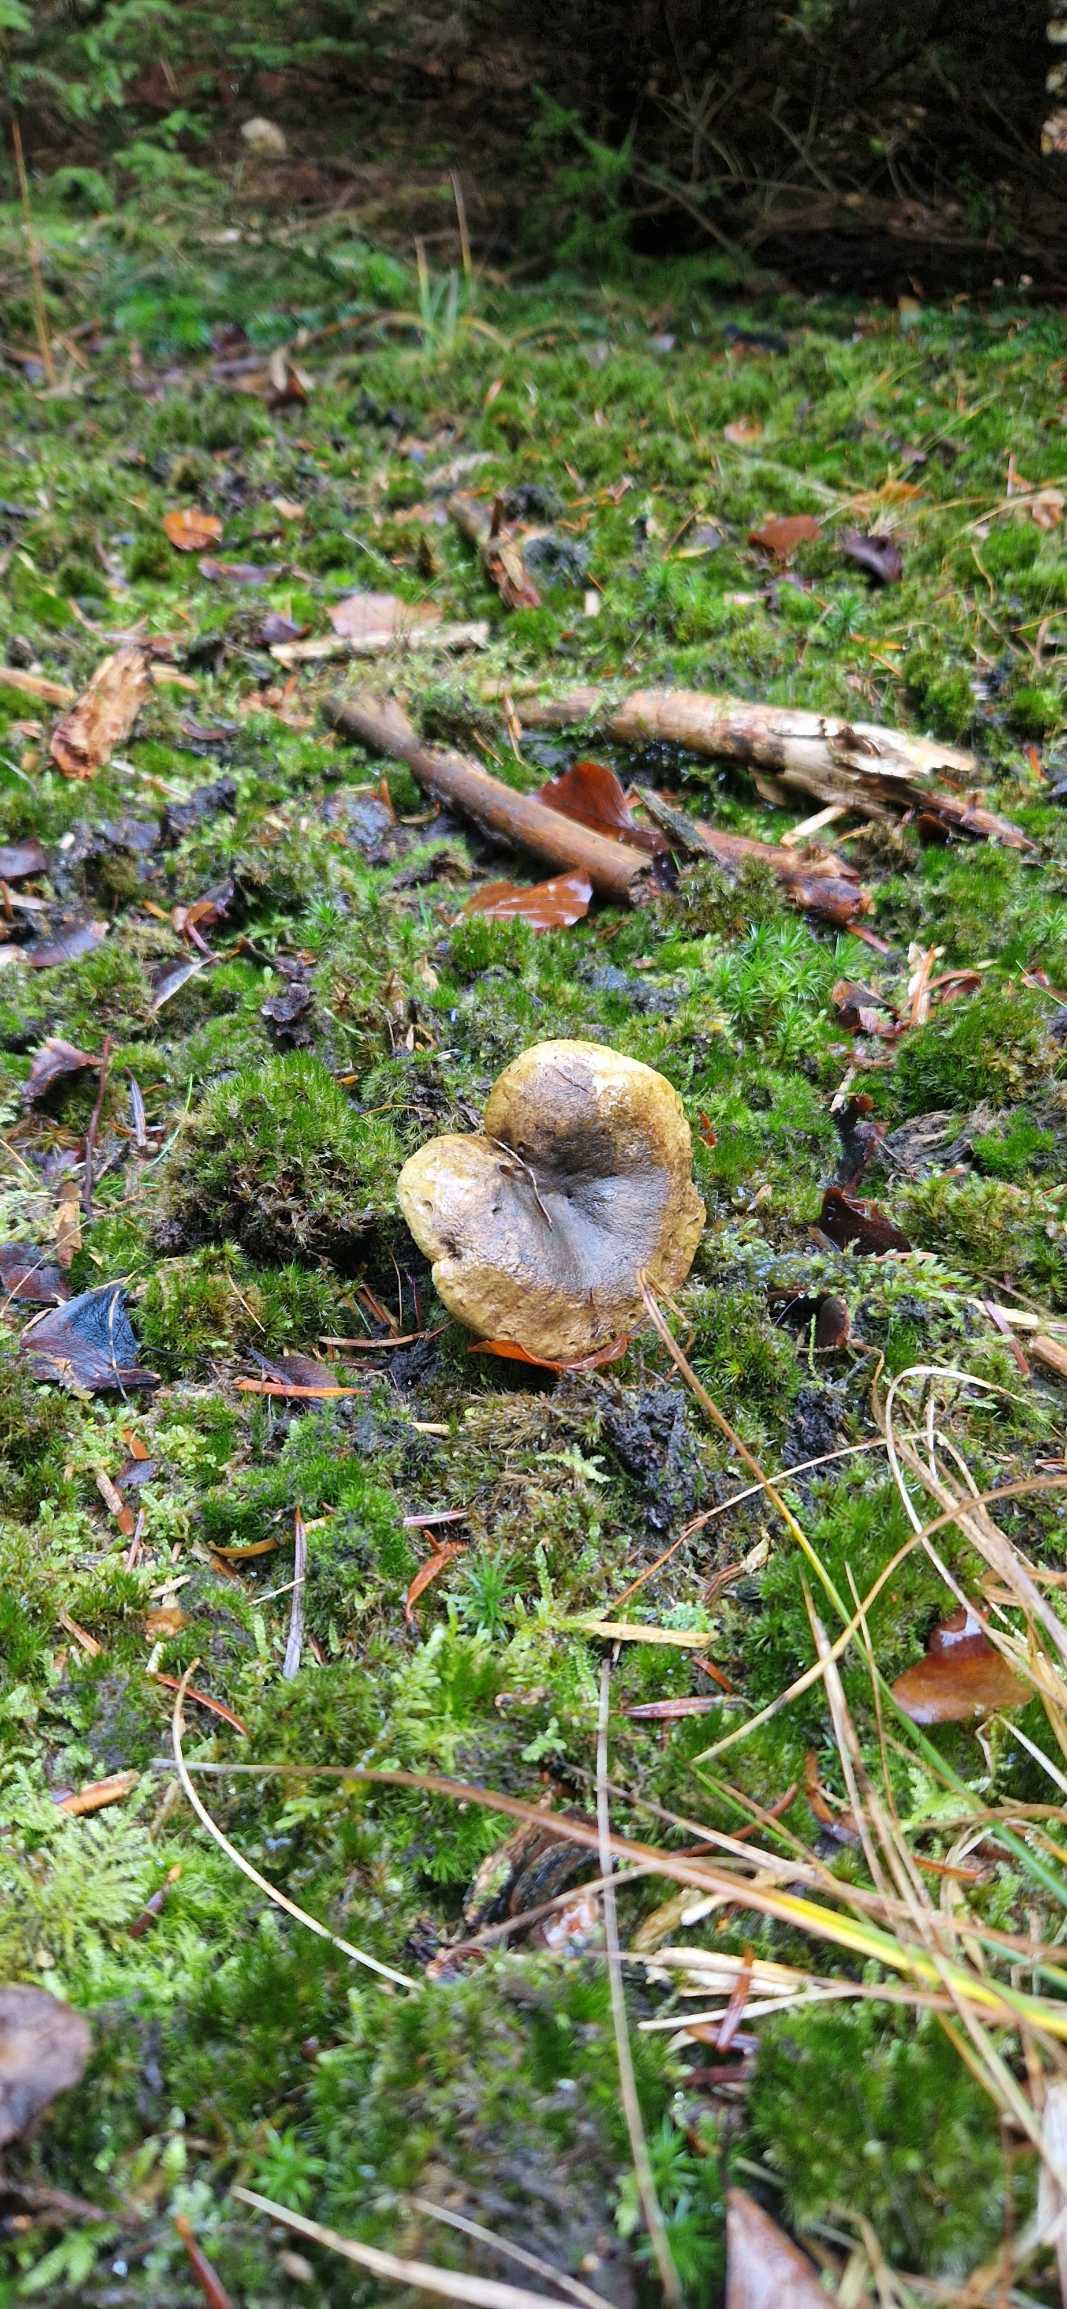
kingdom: Fungi
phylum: Basidiomycota
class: Agaricomycetes
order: Russulales
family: Russulaceae
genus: Lactarius
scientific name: Lactarius turpis
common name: Manddraber-mælkehat
